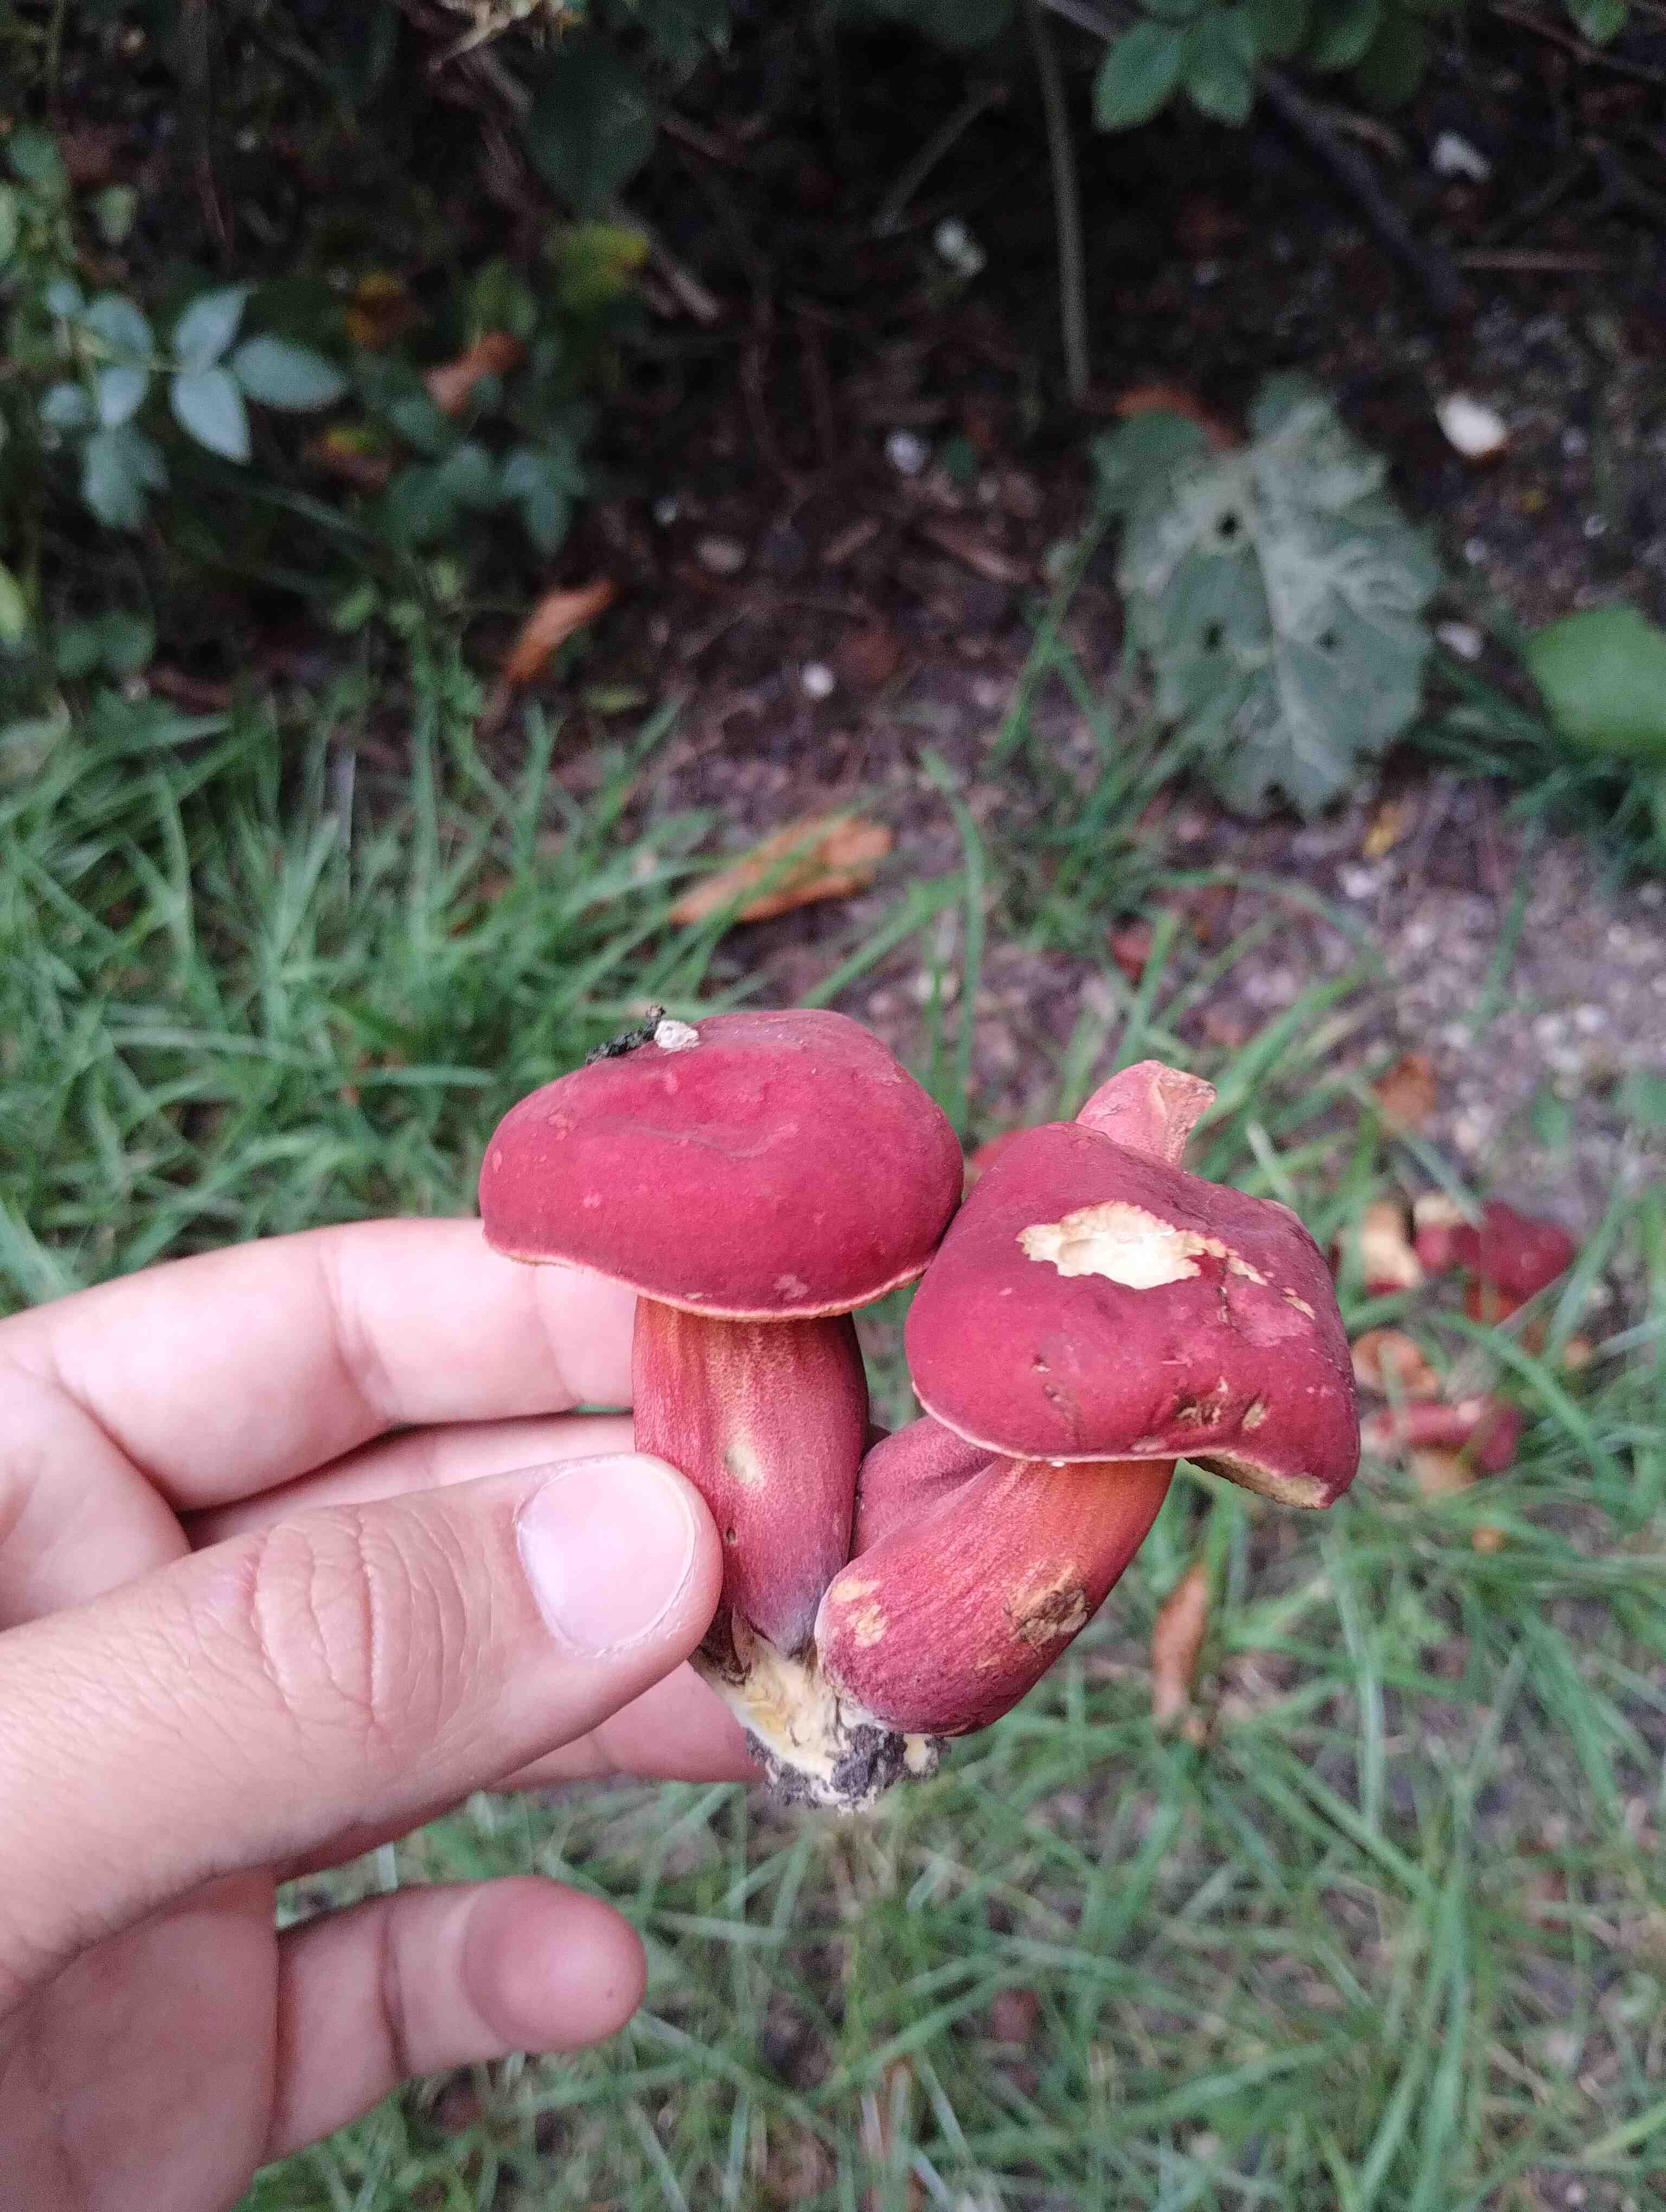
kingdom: Fungi
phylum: Basidiomycota
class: Agaricomycetes
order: Boletales
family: Boletaceae
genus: Hortiboletus
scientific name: Hortiboletus rubellus
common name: blodrød rørhat
